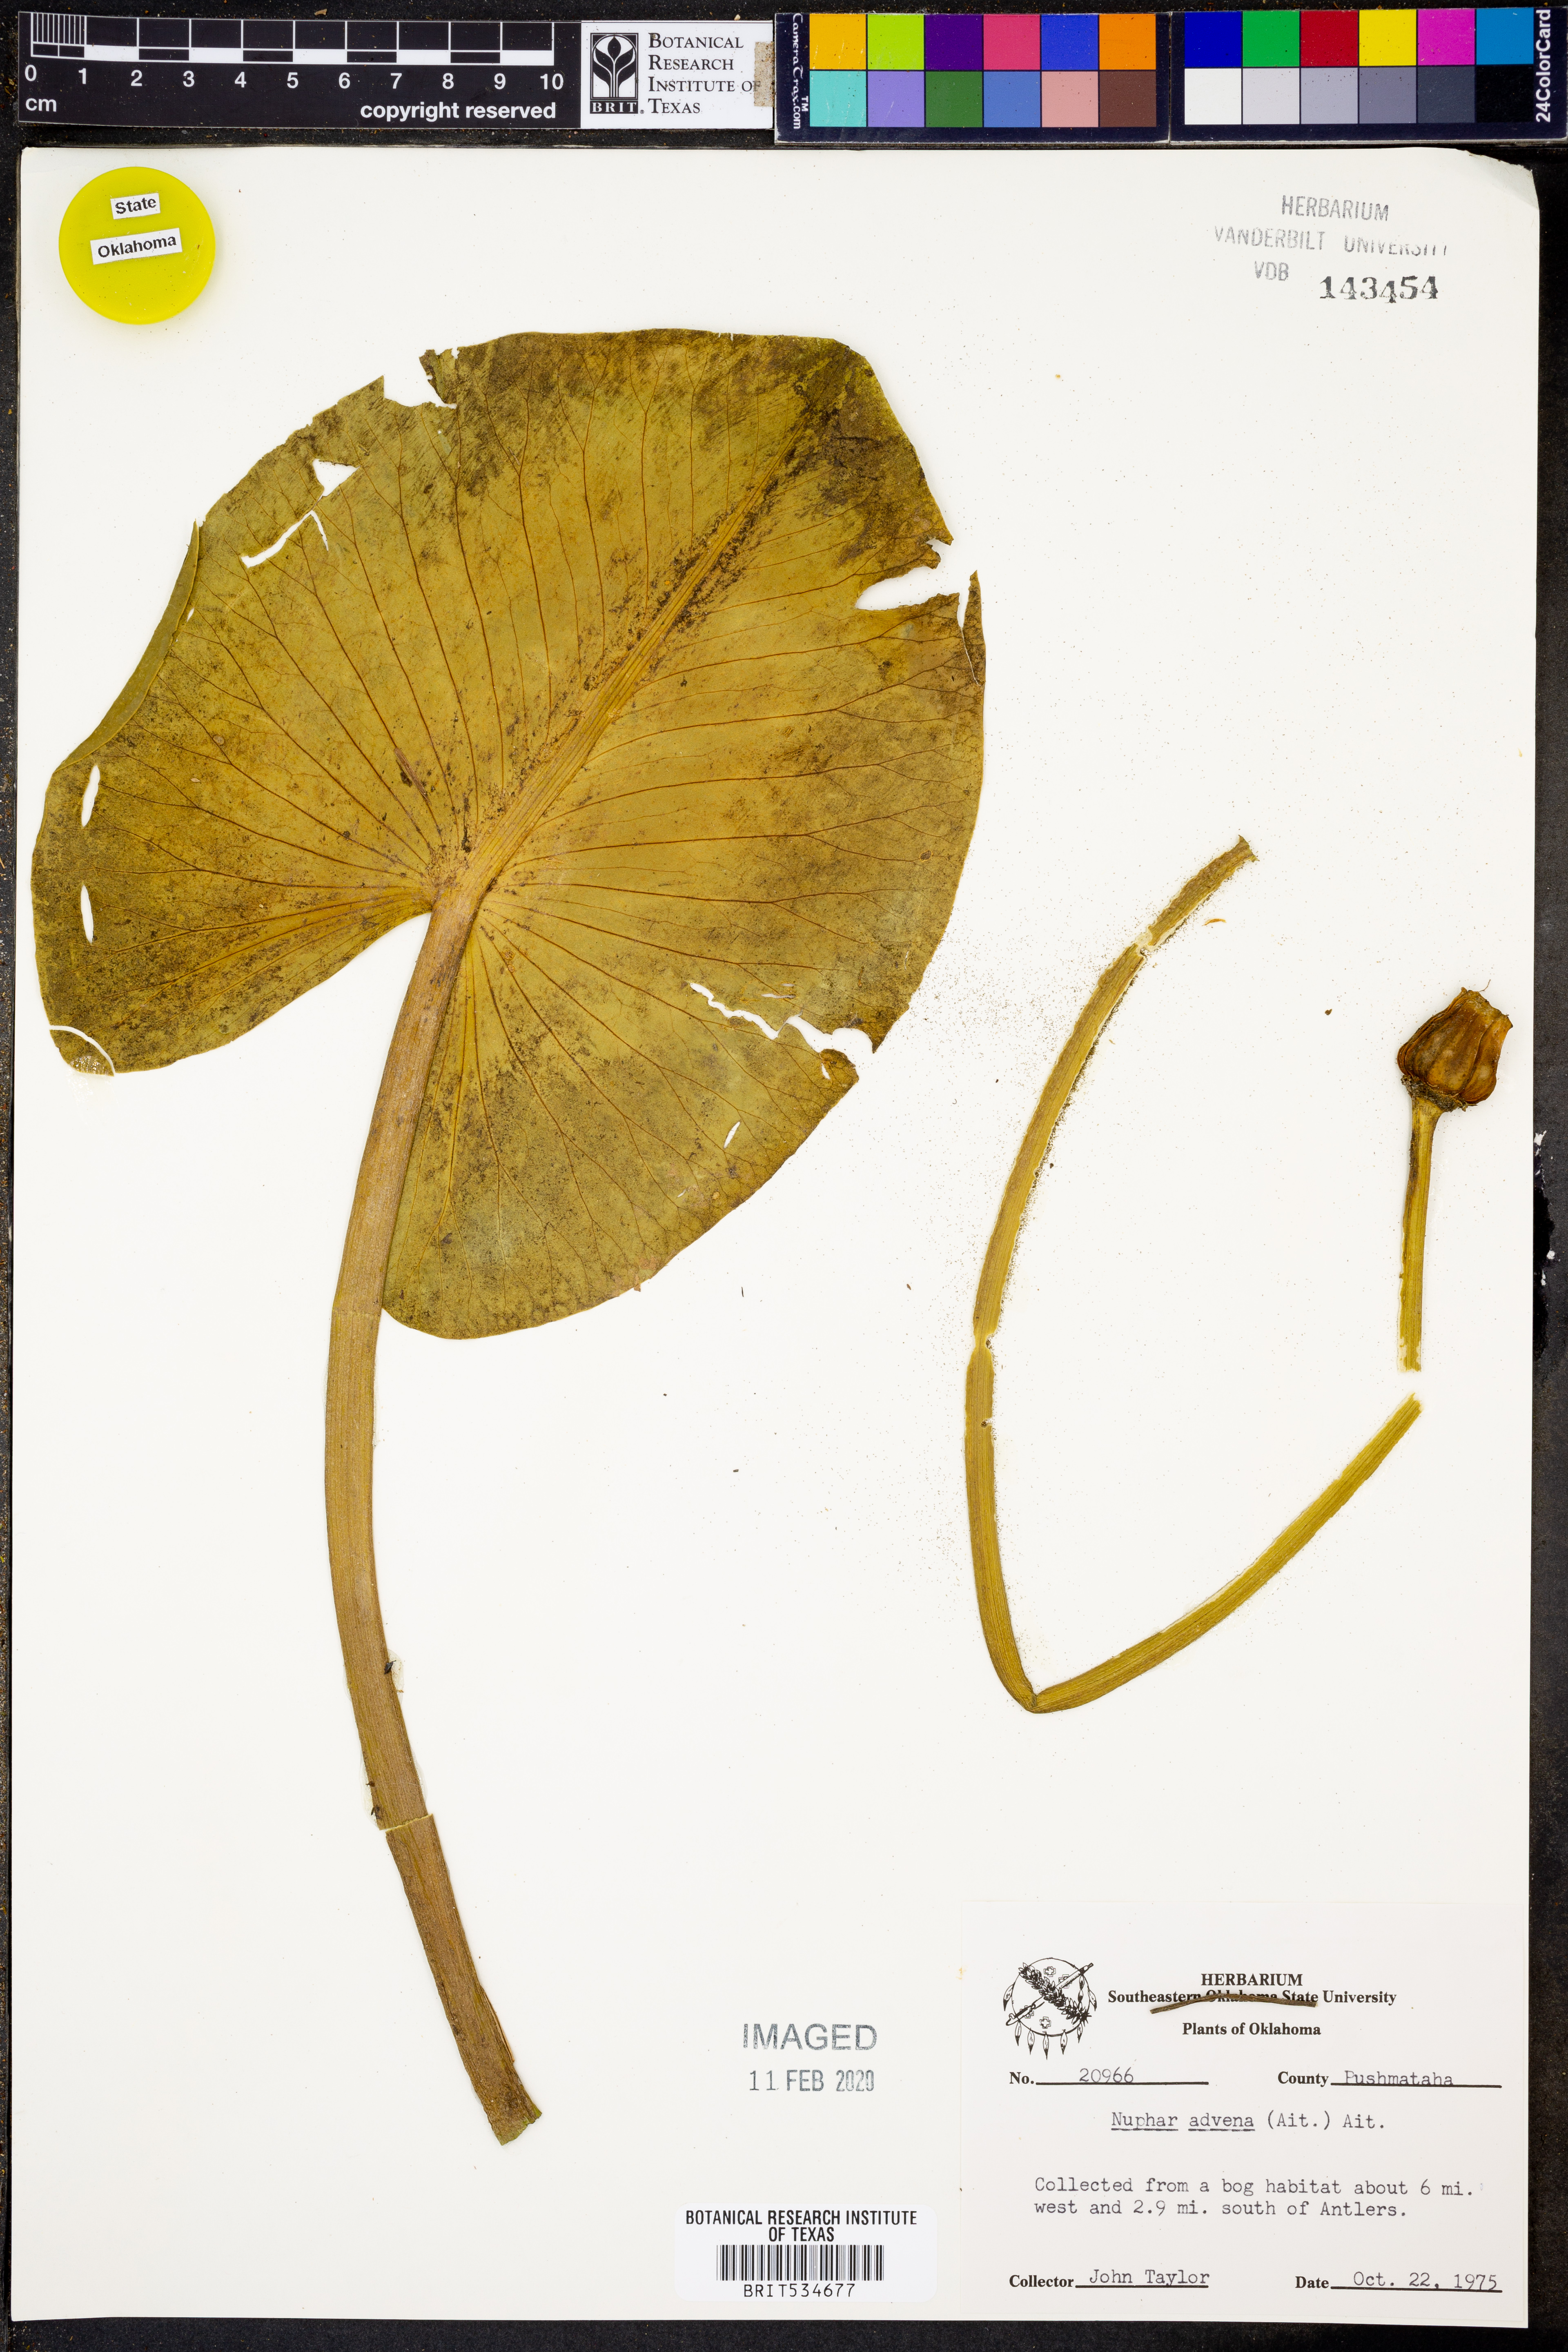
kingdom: Plantae
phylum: Tracheophyta
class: Magnoliopsida
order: Nymphaeales
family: Nymphaeaceae
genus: Nuphar
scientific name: Nuphar advena
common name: Spatter-dock
